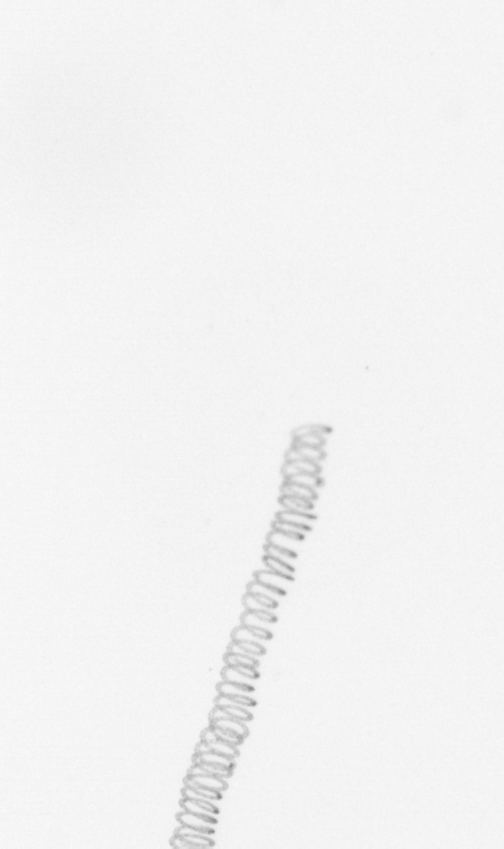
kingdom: Chromista
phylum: Ochrophyta
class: Bacillariophyceae
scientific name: Bacillariophyceae
